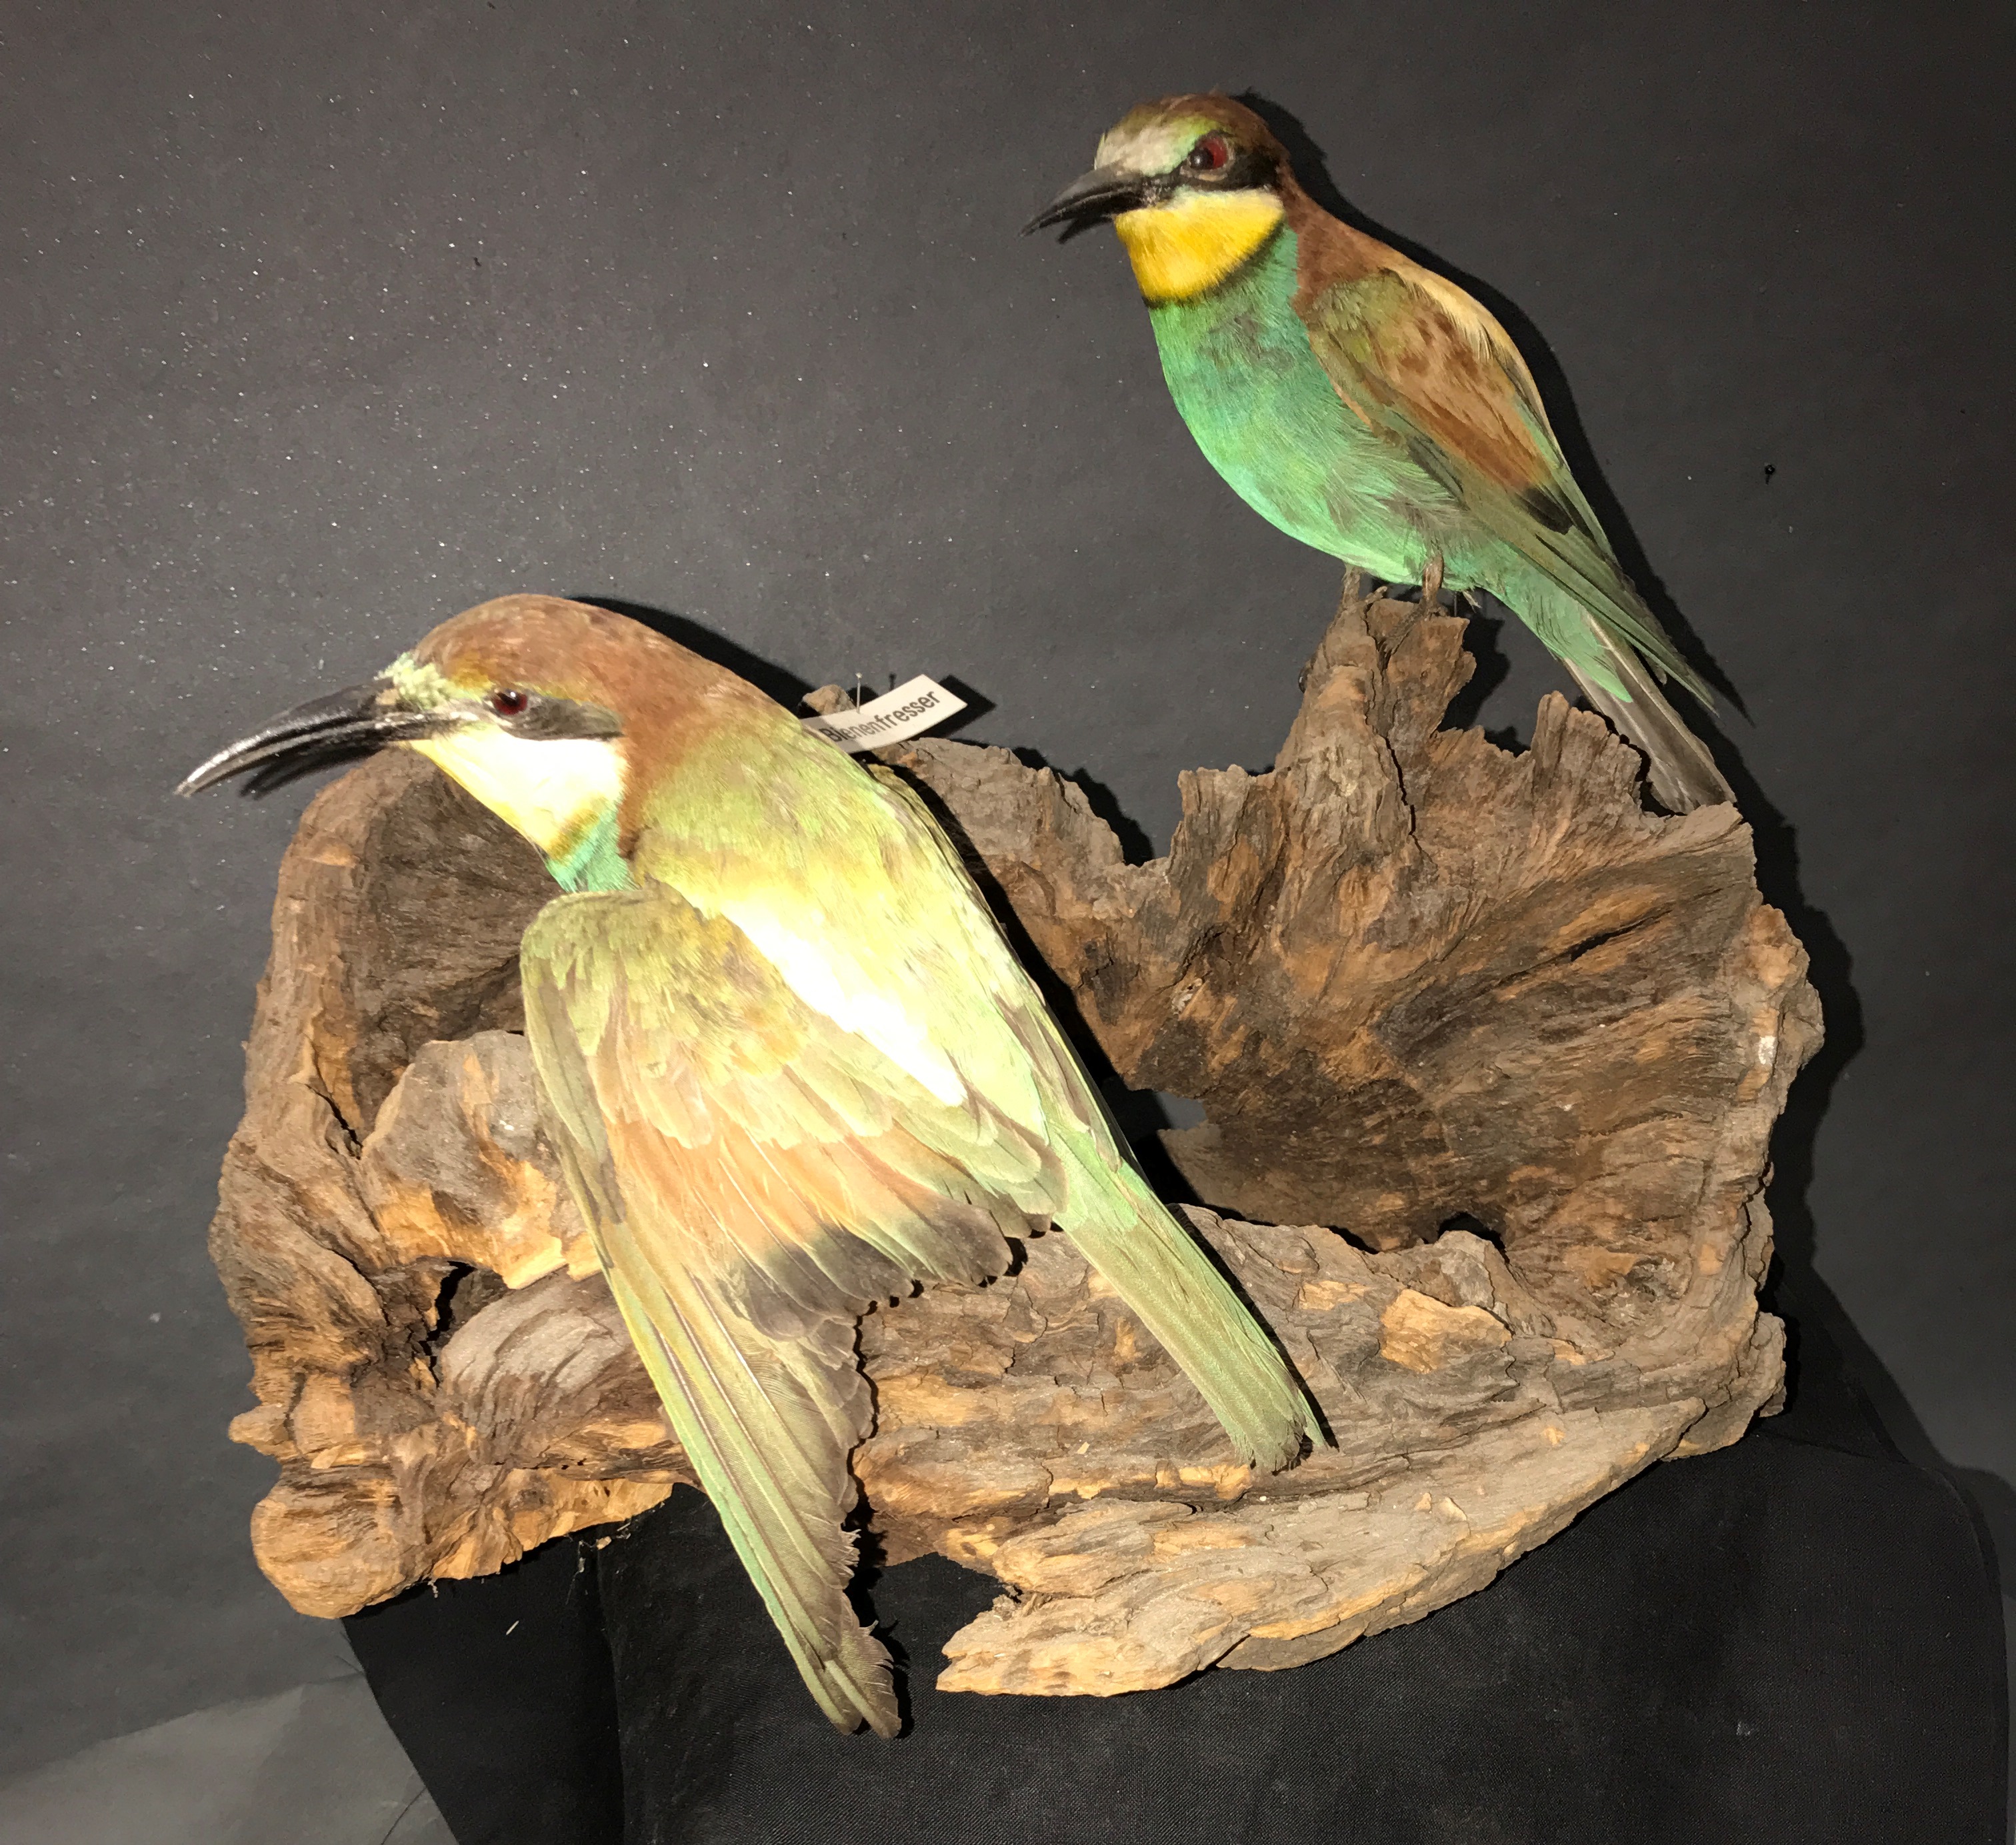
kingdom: Animalia
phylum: Chordata
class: Aves
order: Coraciiformes
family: Meropidae
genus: Merops
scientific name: Merops apiaster
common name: European bee-eater
